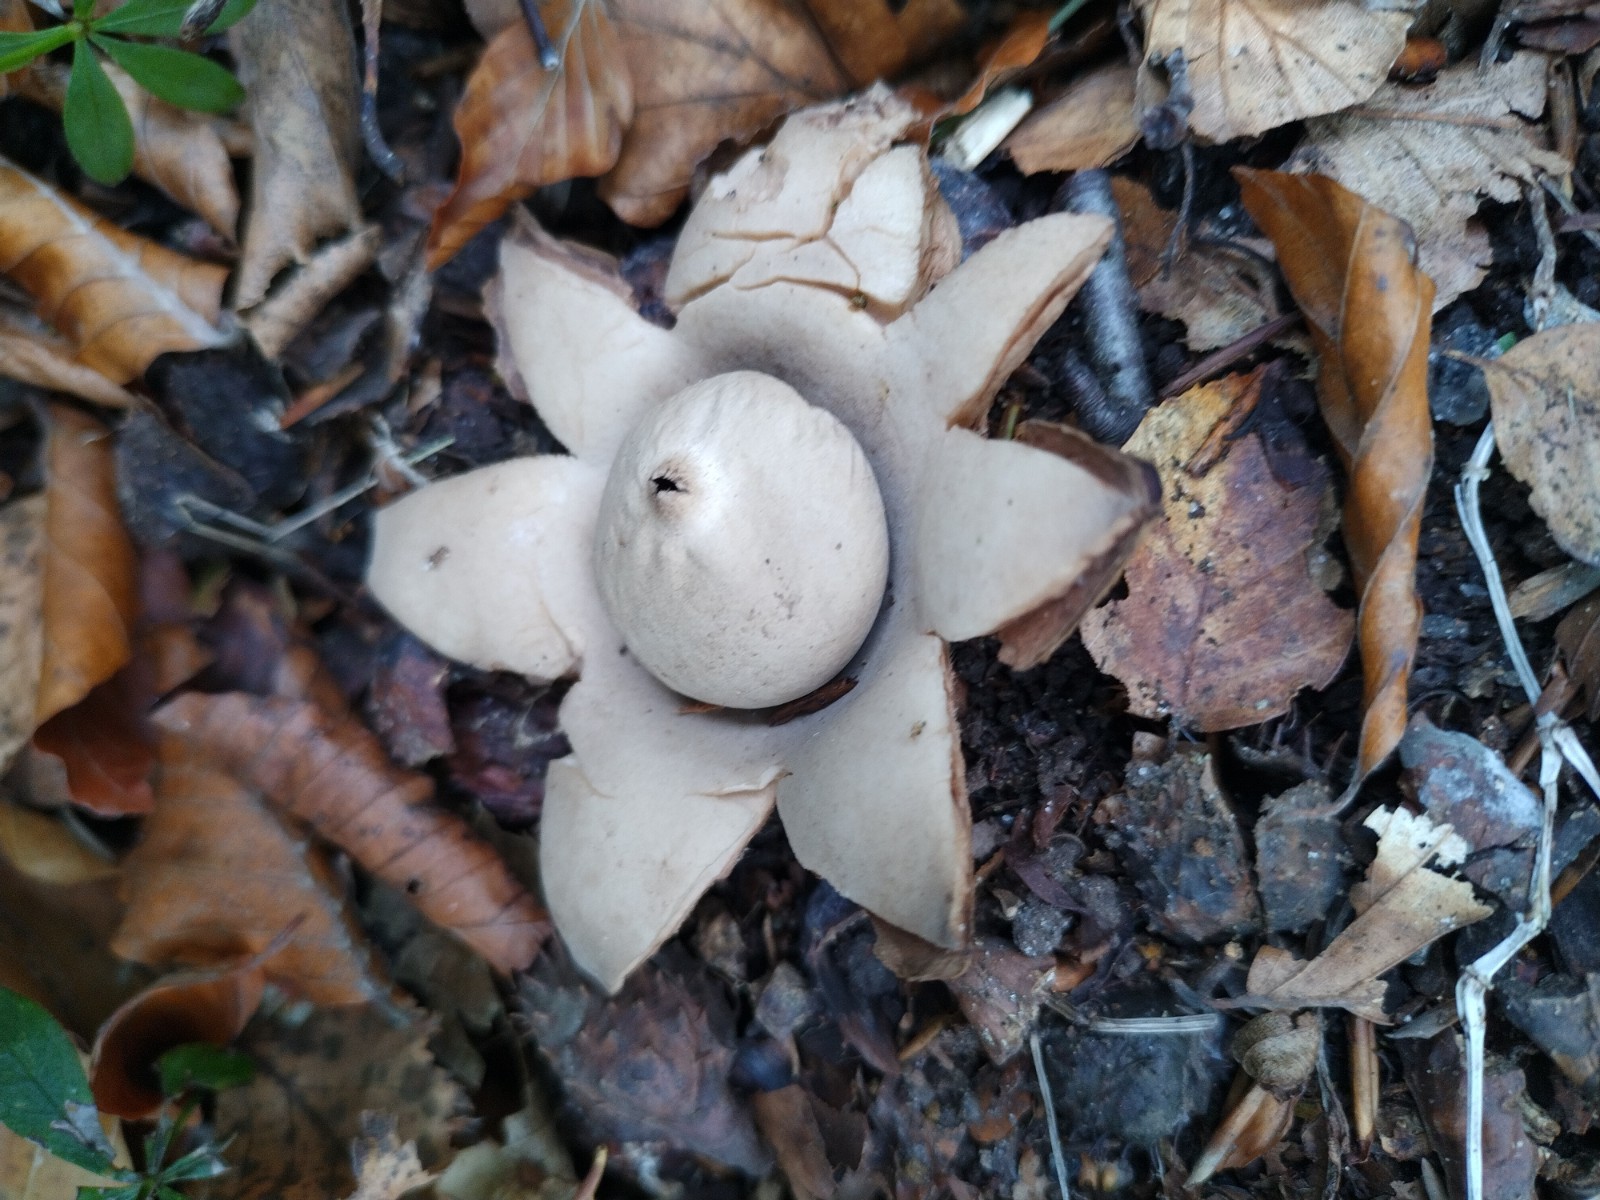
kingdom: Fungi
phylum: Basidiomycota
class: Agaricomycetes
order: Geastrales
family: Geastraceae
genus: Geastrum
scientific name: Geastrum michelianum
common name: kødet stjernebold
